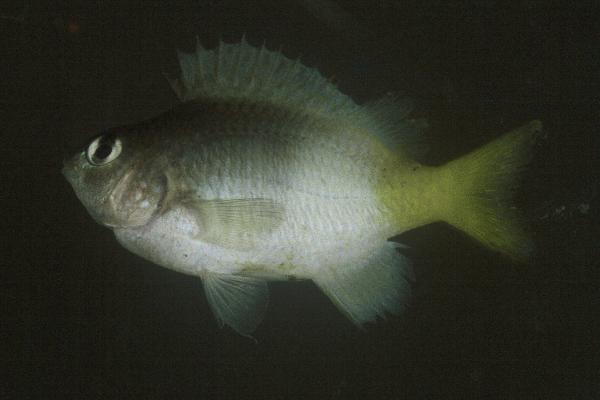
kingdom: Animalia
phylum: Chordata
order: Perciformes
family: Pomacentridae
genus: Plectroglyphidodon
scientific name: Plectroglyphidodon imparipennis
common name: Brighteye damsel
